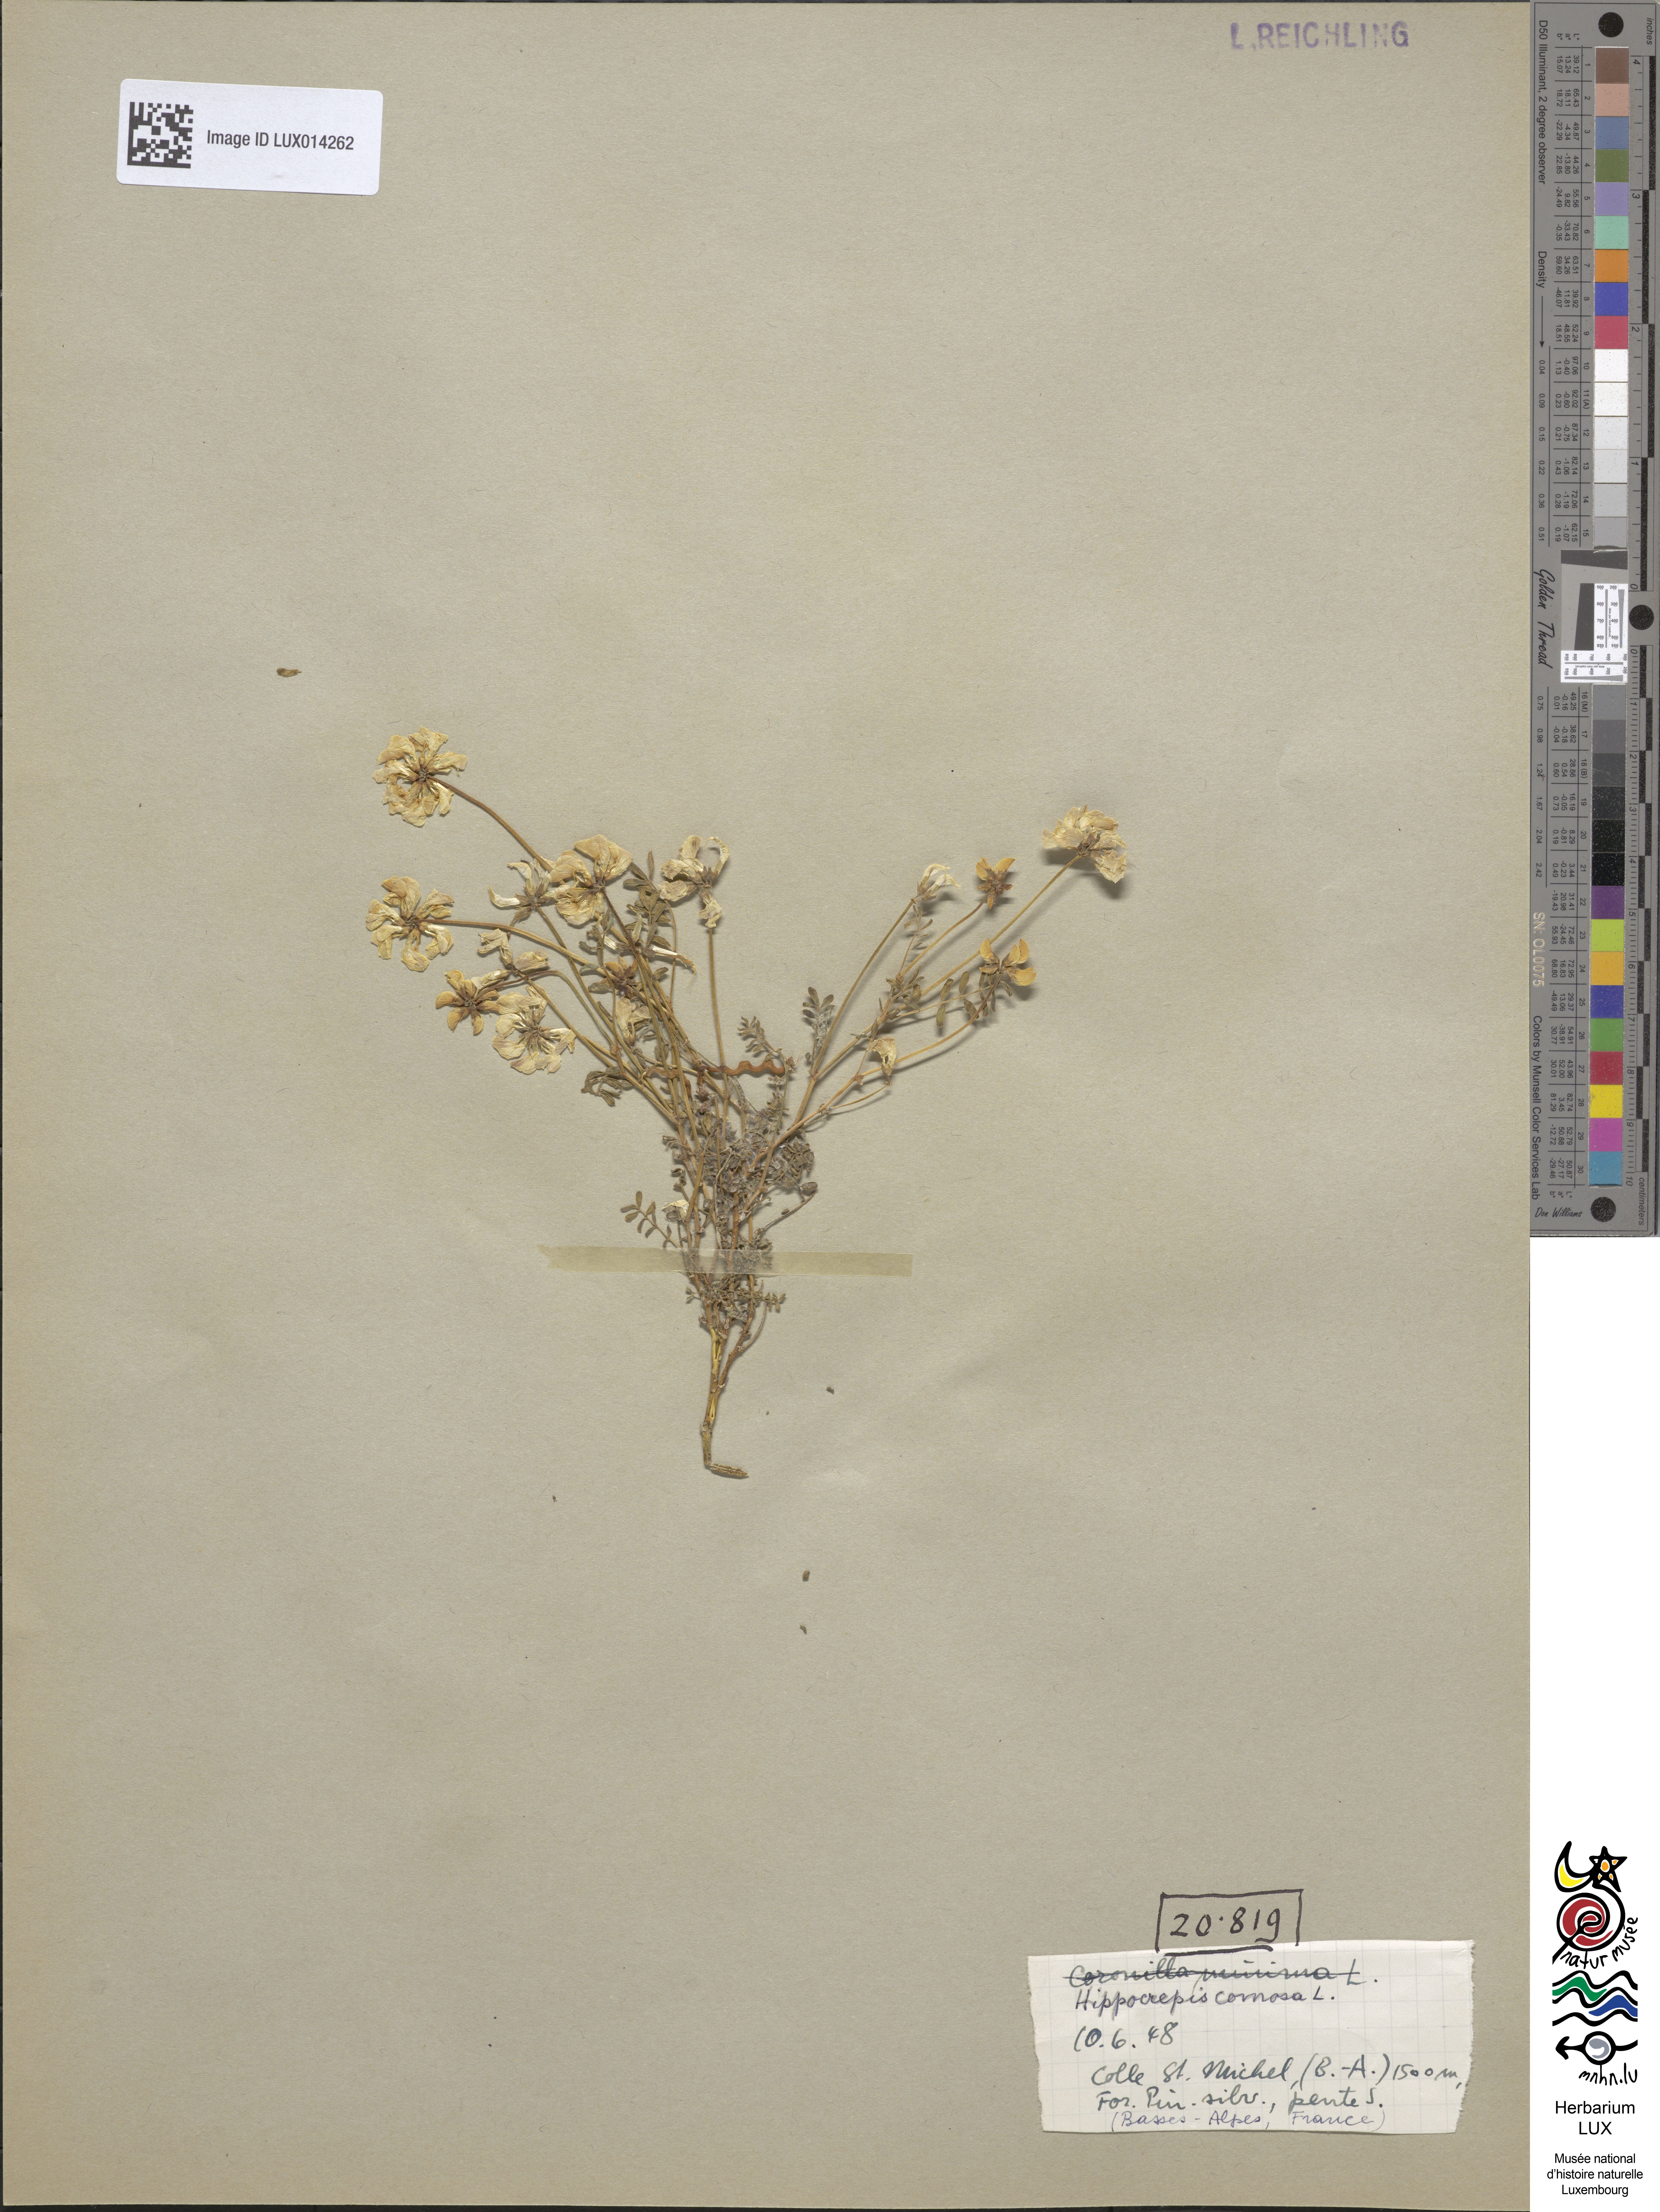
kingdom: Plantae
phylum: Tracheophyta
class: Magnoliopsida
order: Fabales
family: Fabaceae
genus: Hippocrepis
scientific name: Hippocrepis comosa
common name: Horseshoe vetch
